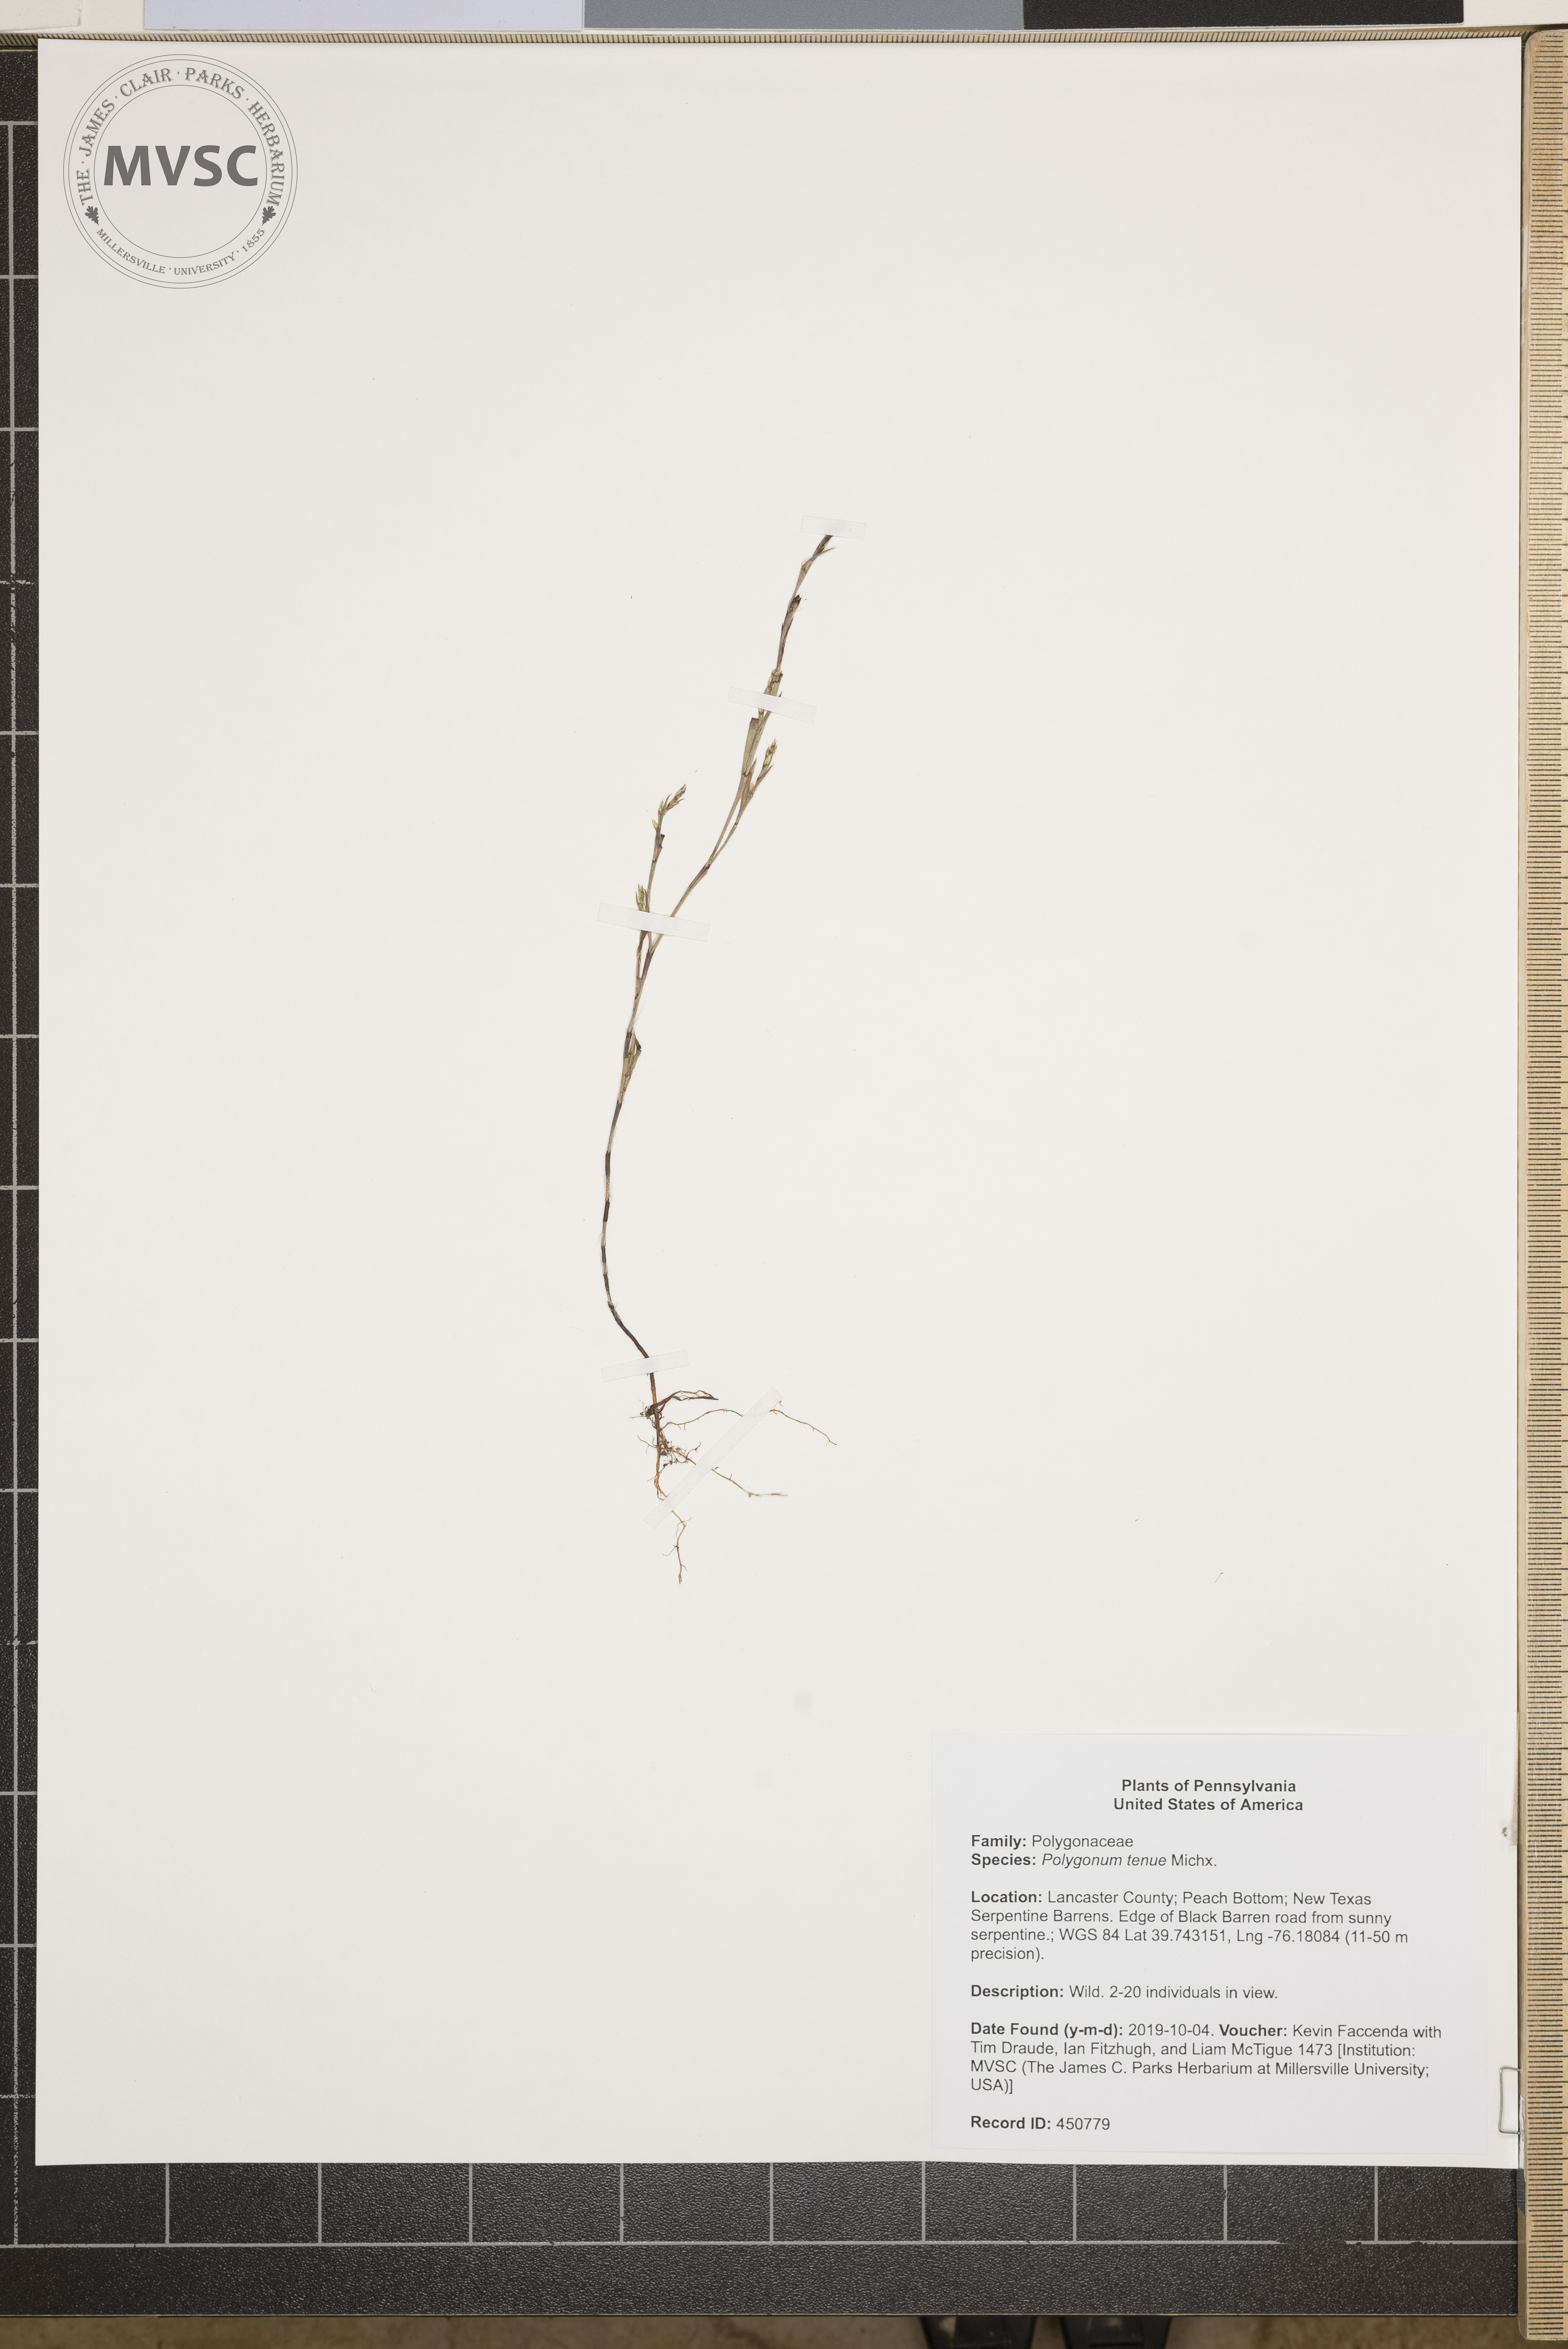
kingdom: Plantae
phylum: Tracheophyta
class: Magnoliopsida
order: Caryophyllales
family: Polygonaceae
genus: Polygonum
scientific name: Polygonum tenue
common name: Pleat-leaved knotweed
